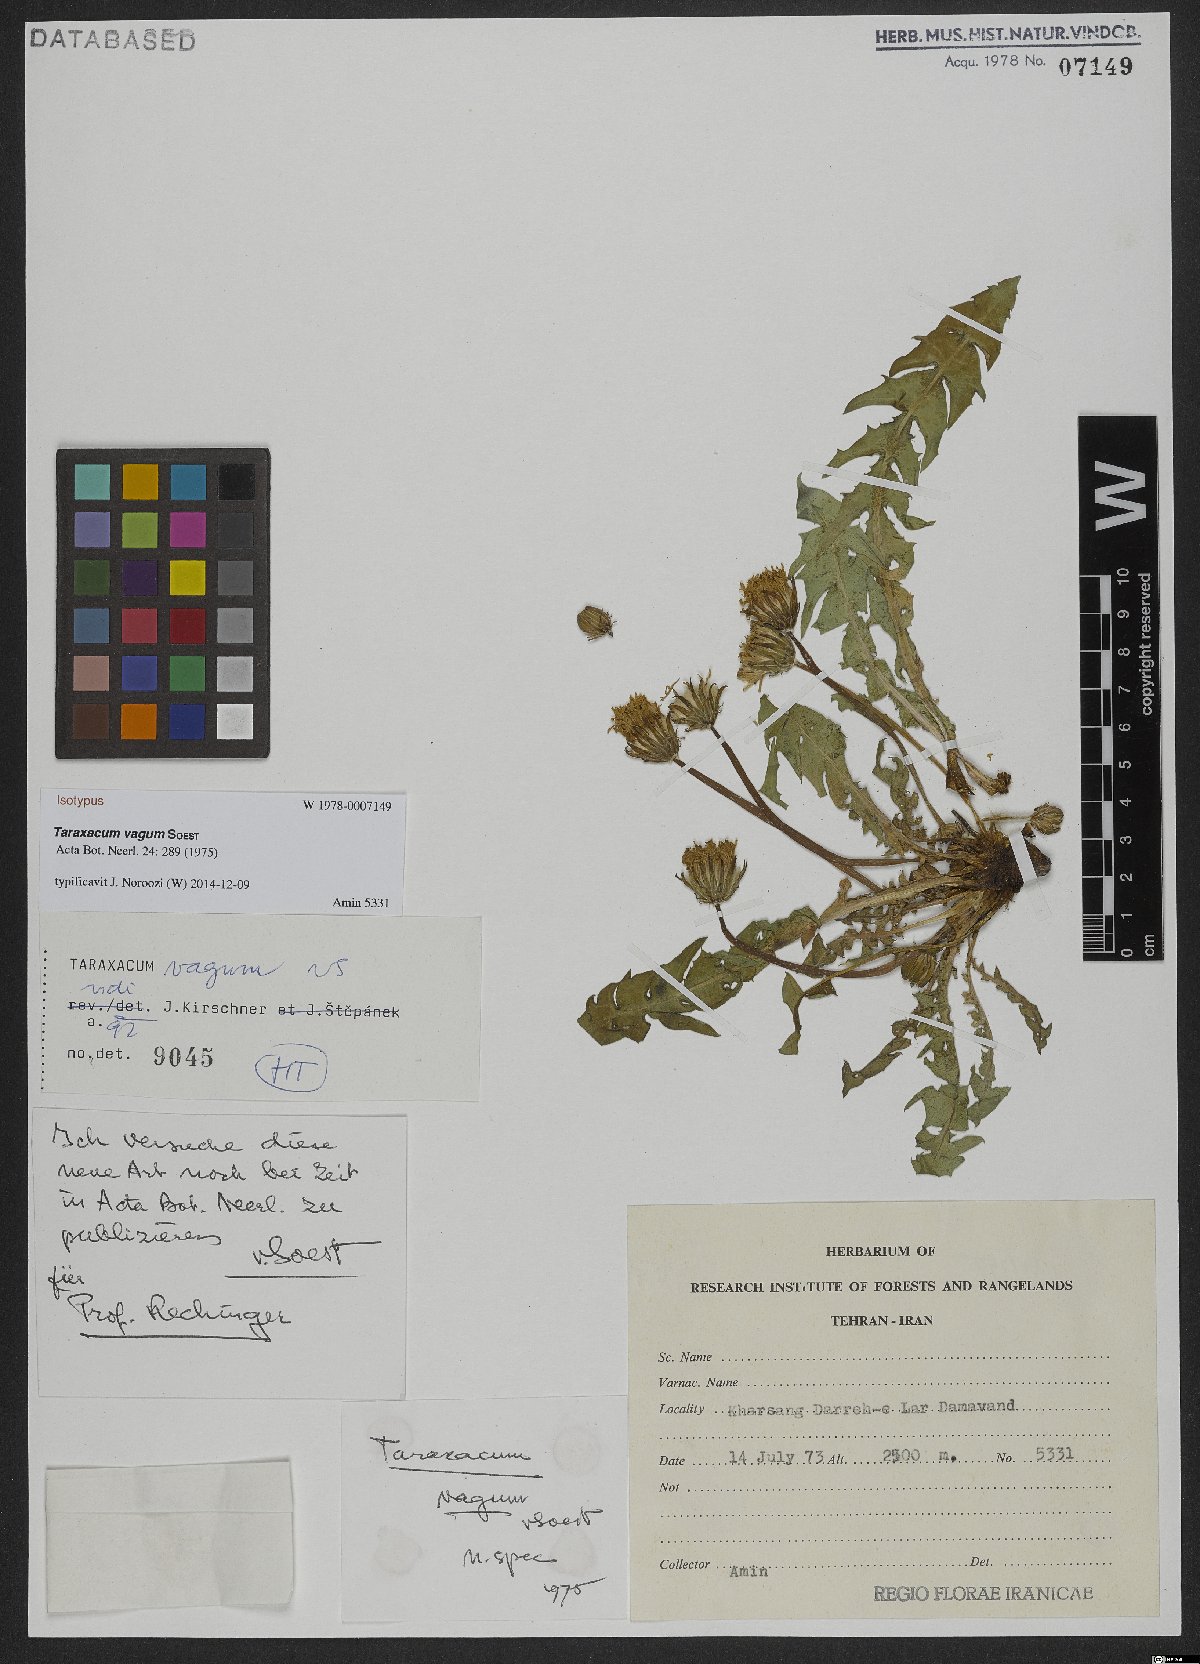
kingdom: Plantae
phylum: Tracheophyta
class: Magnoliopsida
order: Asterales
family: Asteraceae
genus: Taraxacum
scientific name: Taraxacum vagum
